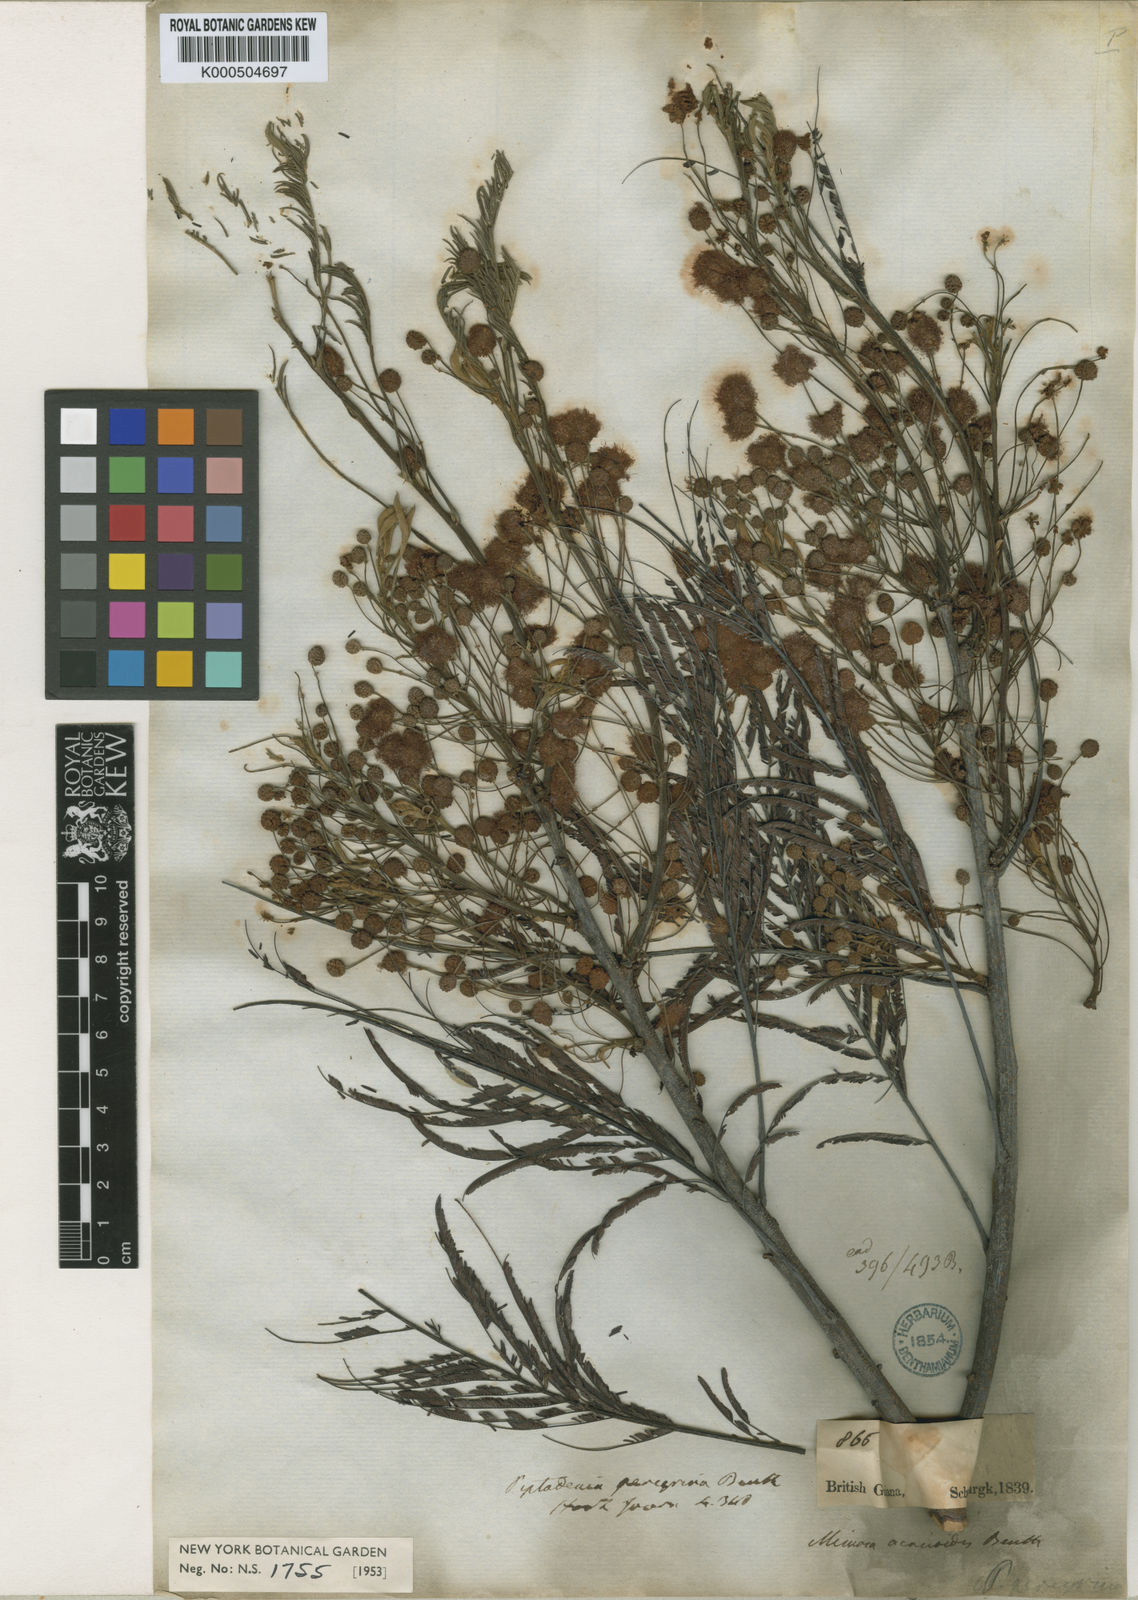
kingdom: Plantae
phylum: Tracheophyta
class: Magnoliopsida
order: Fabales
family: Fabaceae
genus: Anadenanthera
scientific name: Anadenanthera peregrina
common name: Cohoba
